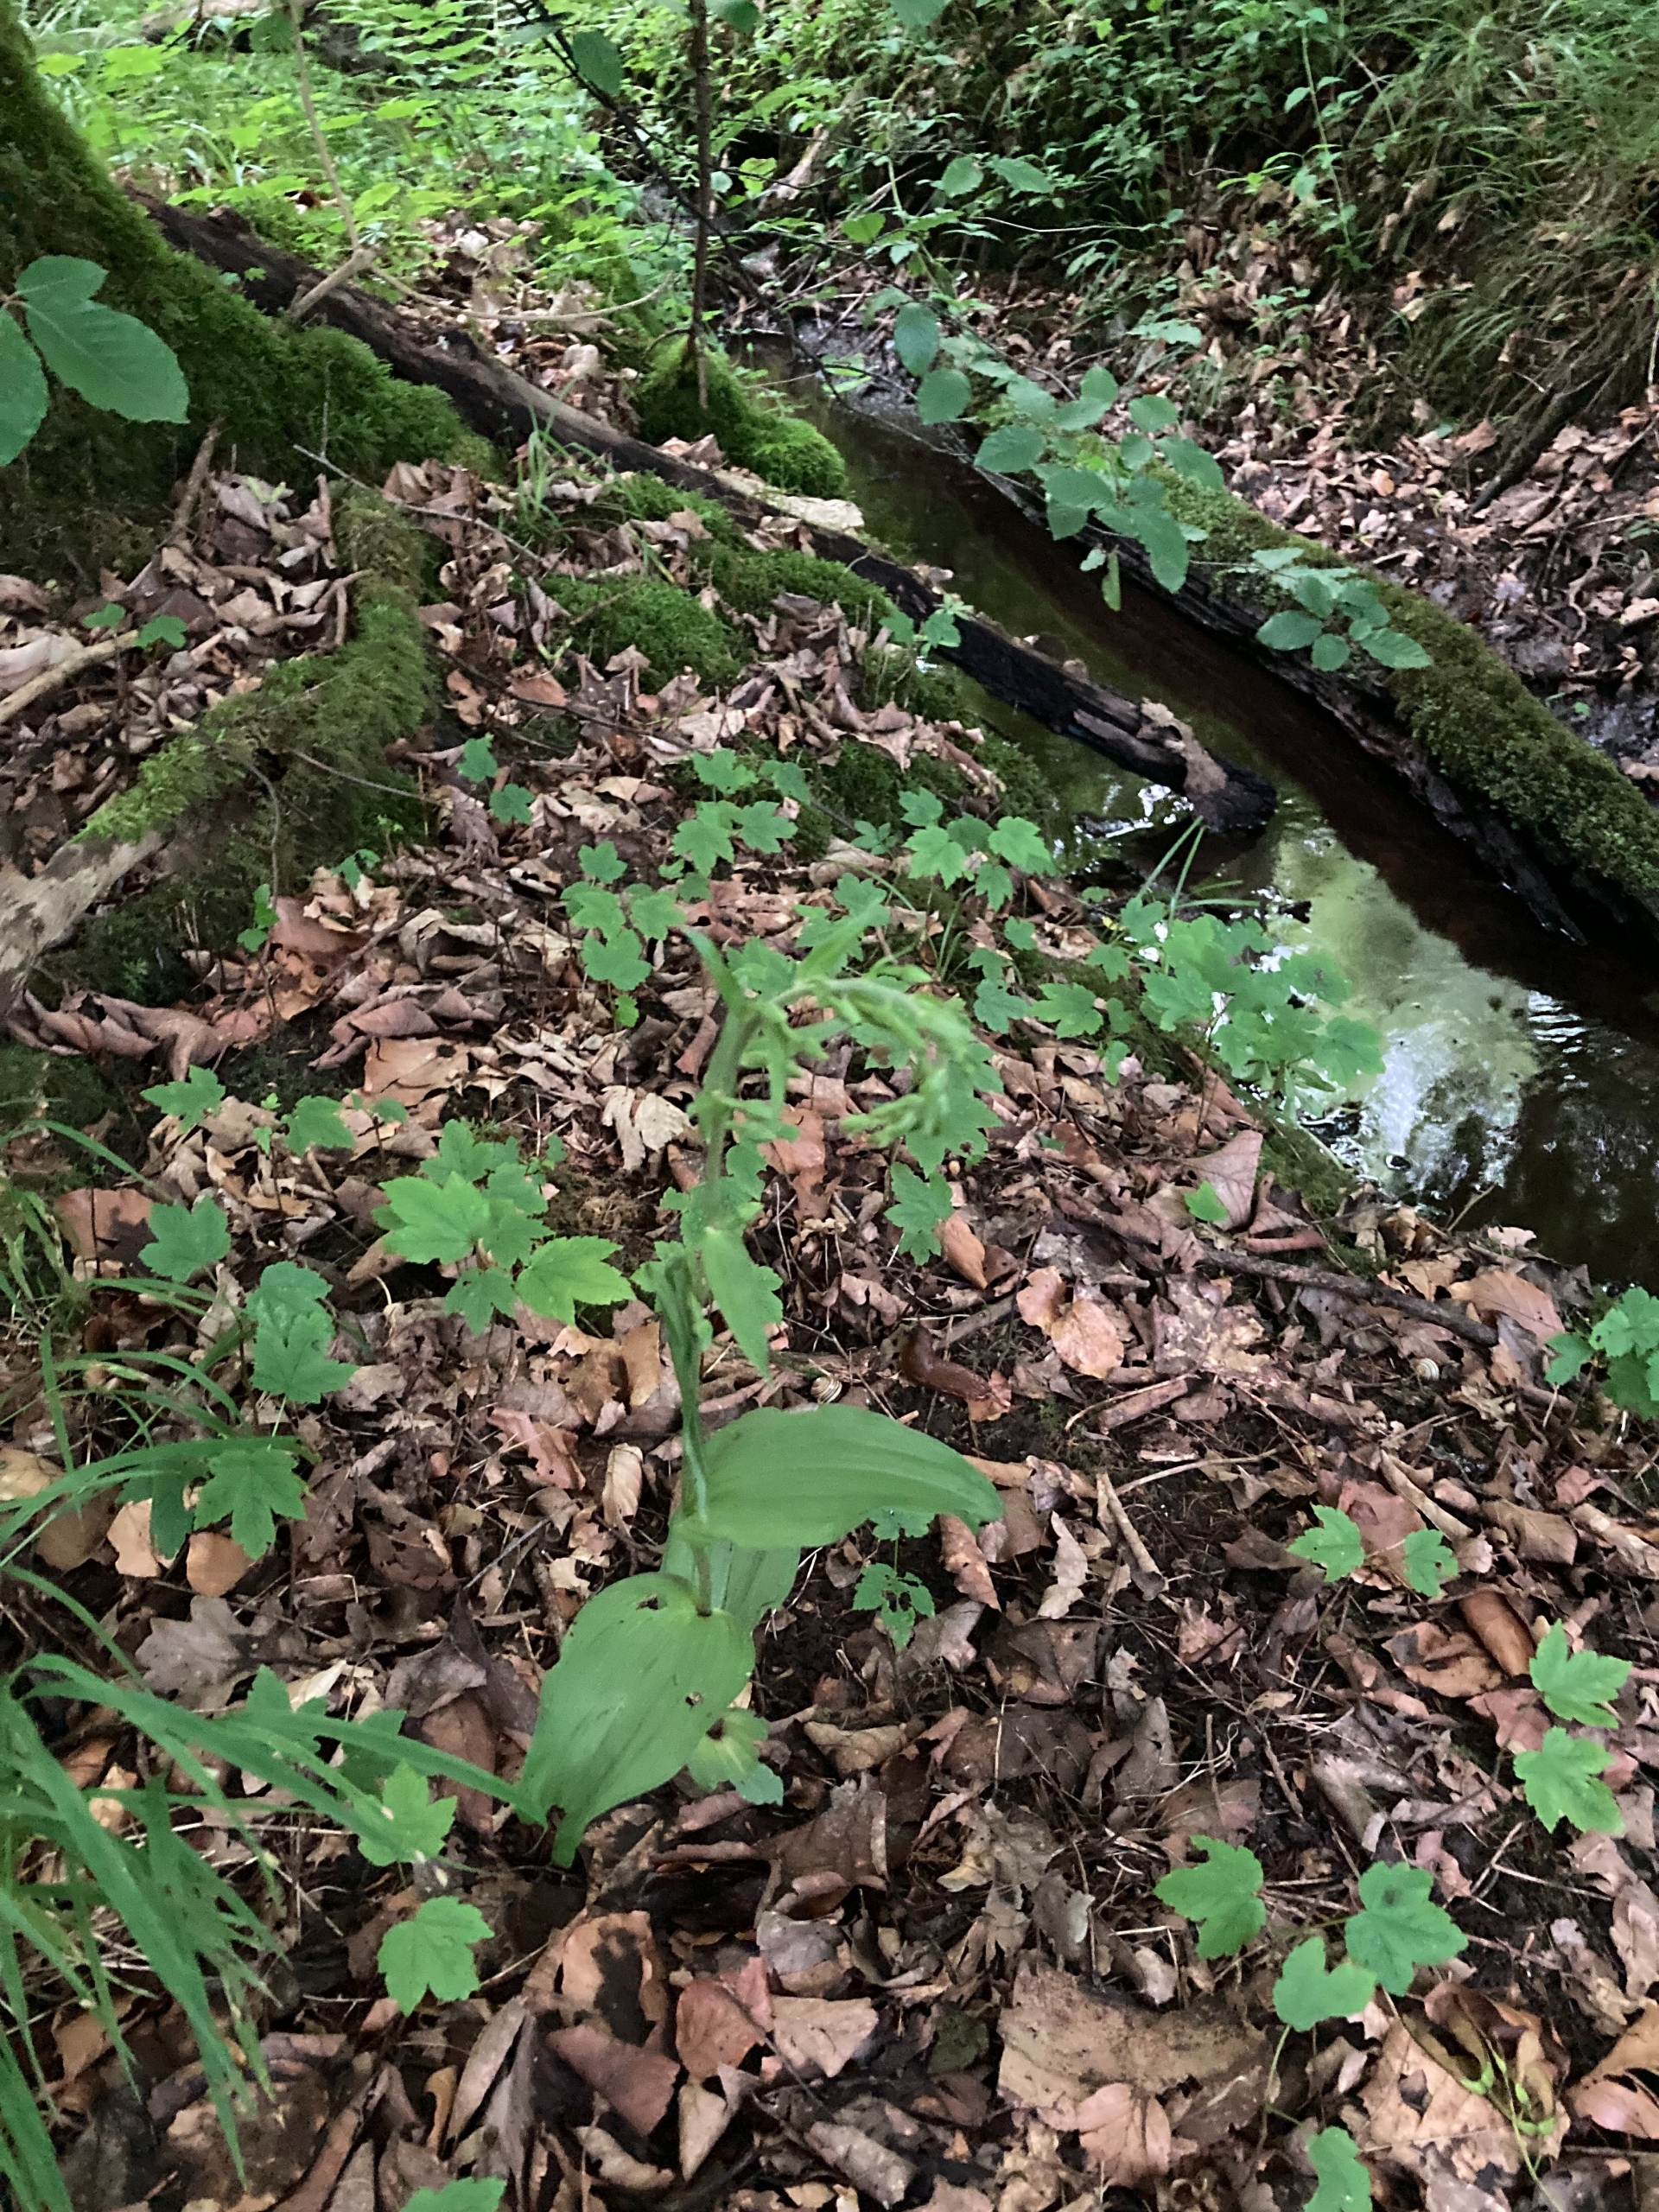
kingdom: Plantae
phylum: Tracheophyta
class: Liliopsida
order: Asparagales
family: Orchidaceae
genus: Epipactis
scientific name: Epipactis helleborine
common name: Skov-hullæbe
